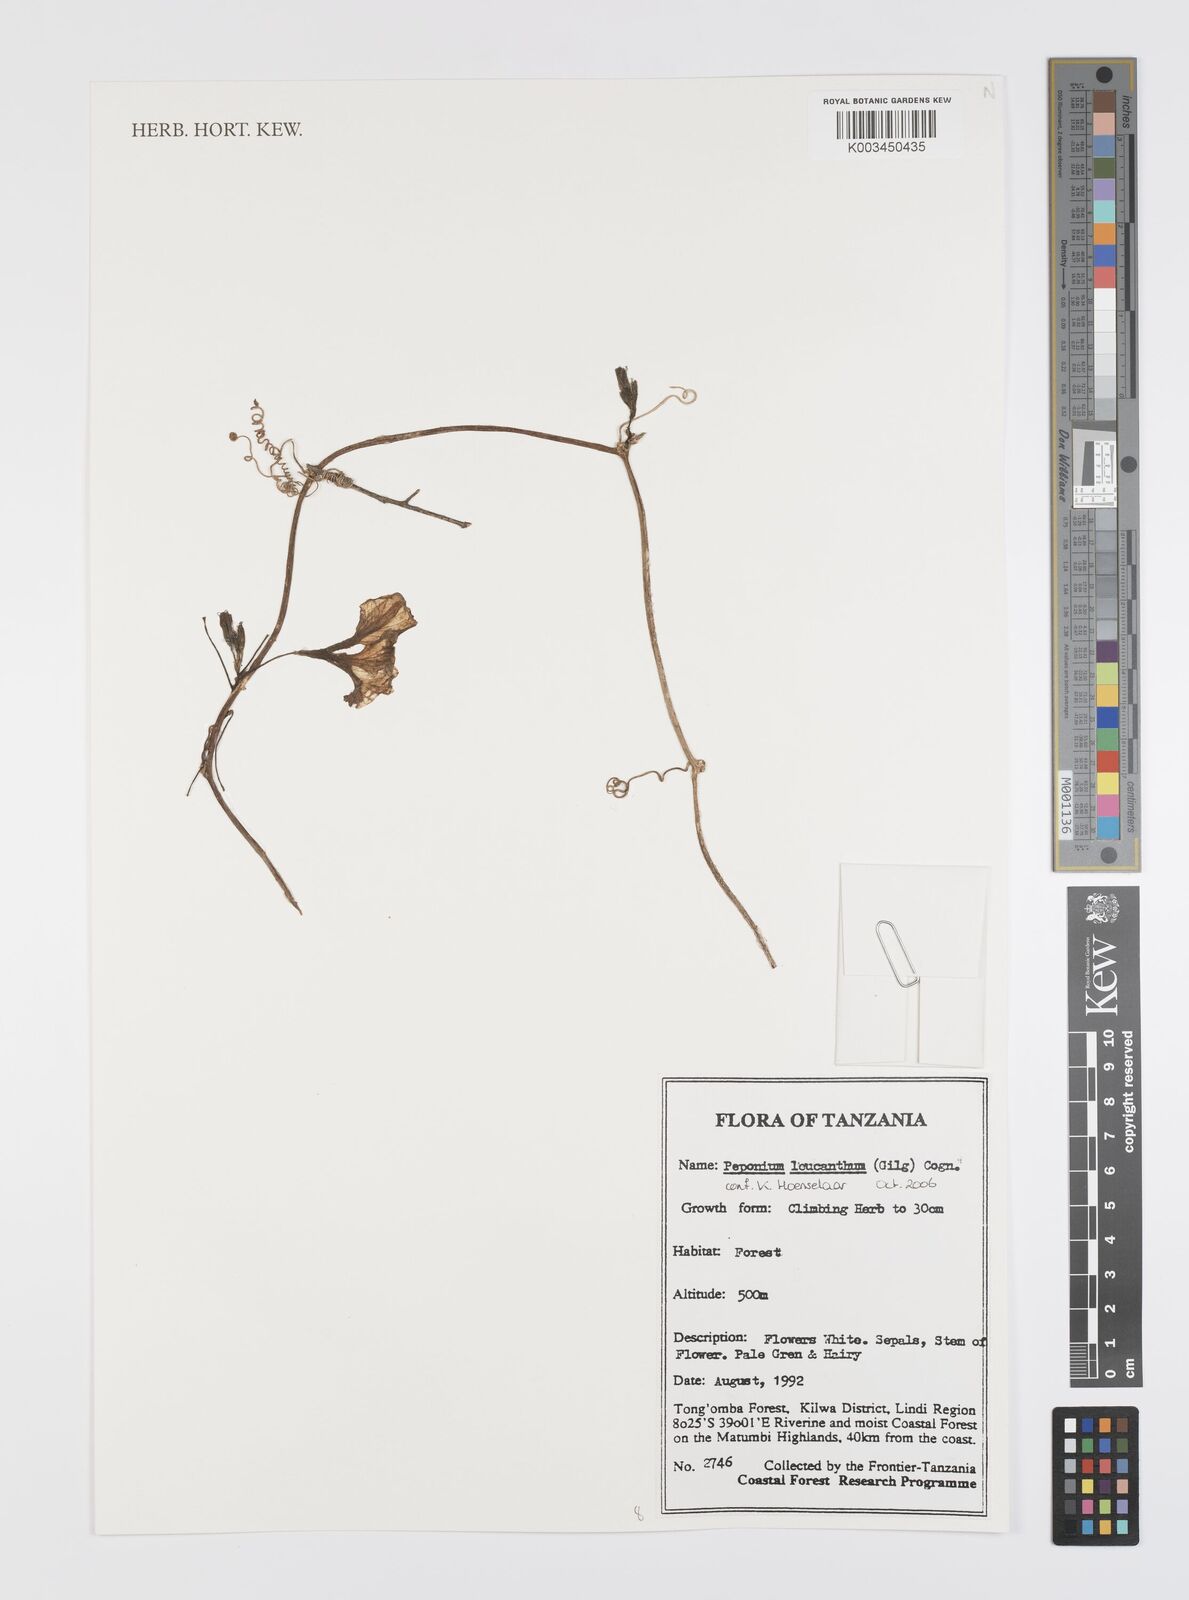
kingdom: Plantae
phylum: Tracheophyta
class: Magnoliopsida
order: Cucurbitales
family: Cucurbitaceae
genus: Peponium
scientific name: Peponium leucanthum
